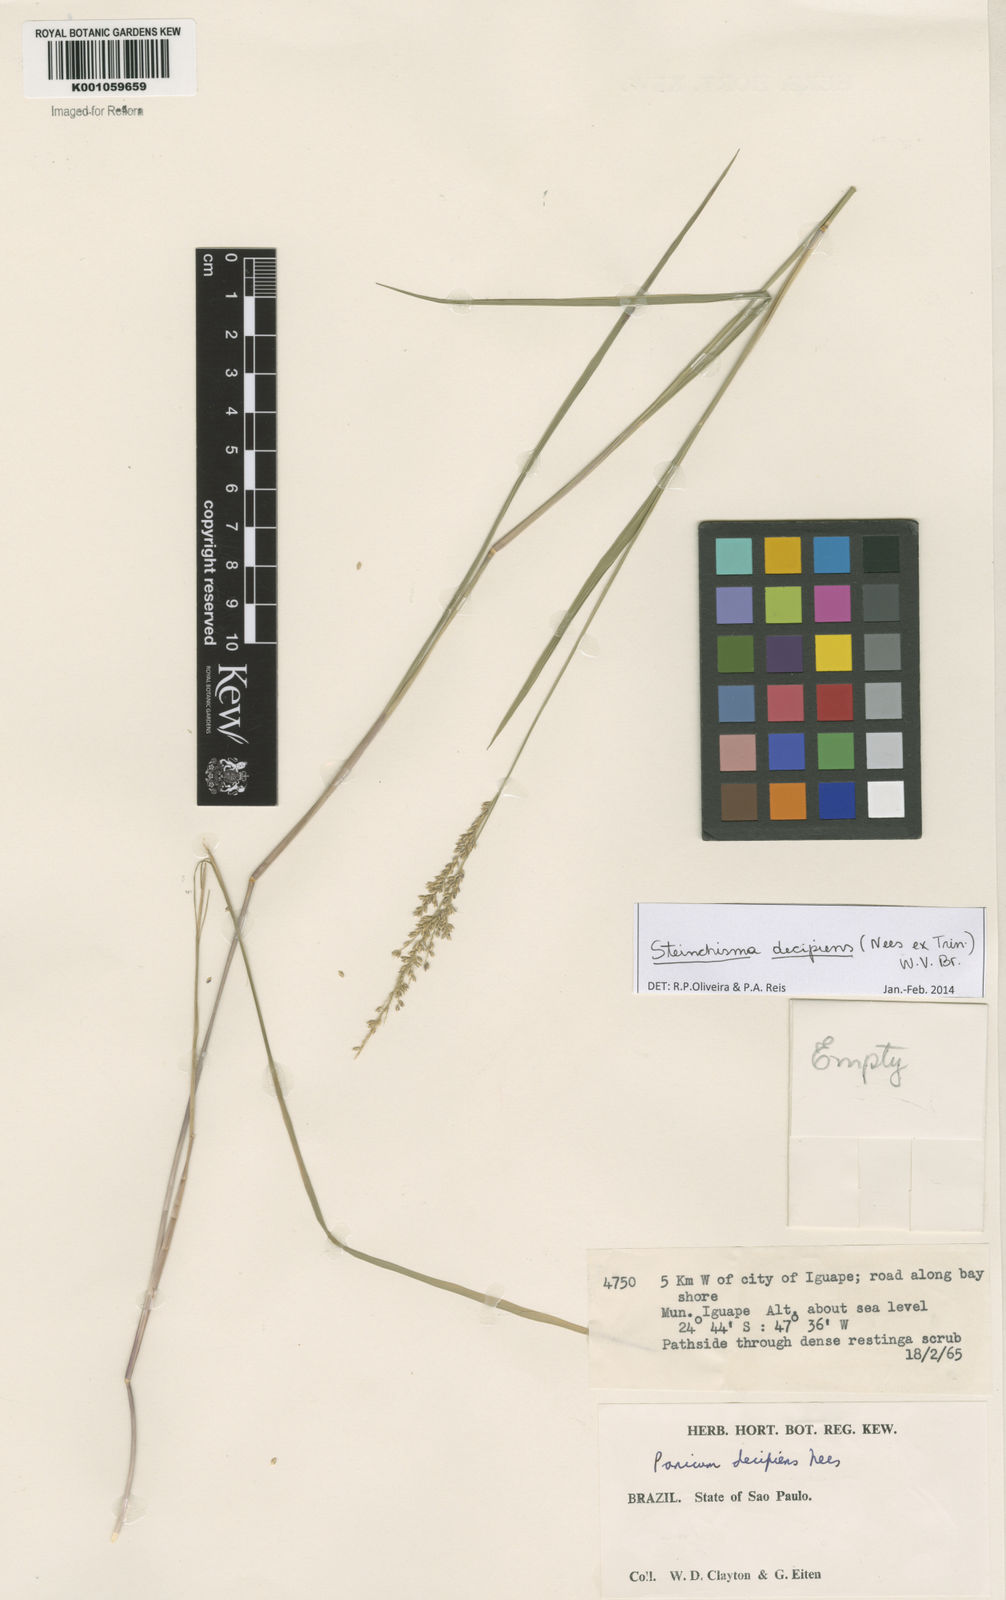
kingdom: Plantae
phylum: Tracheophyta
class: Liliopsida
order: Poales
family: Poaceae
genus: Steinchisma
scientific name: Steinchisma decipiens
